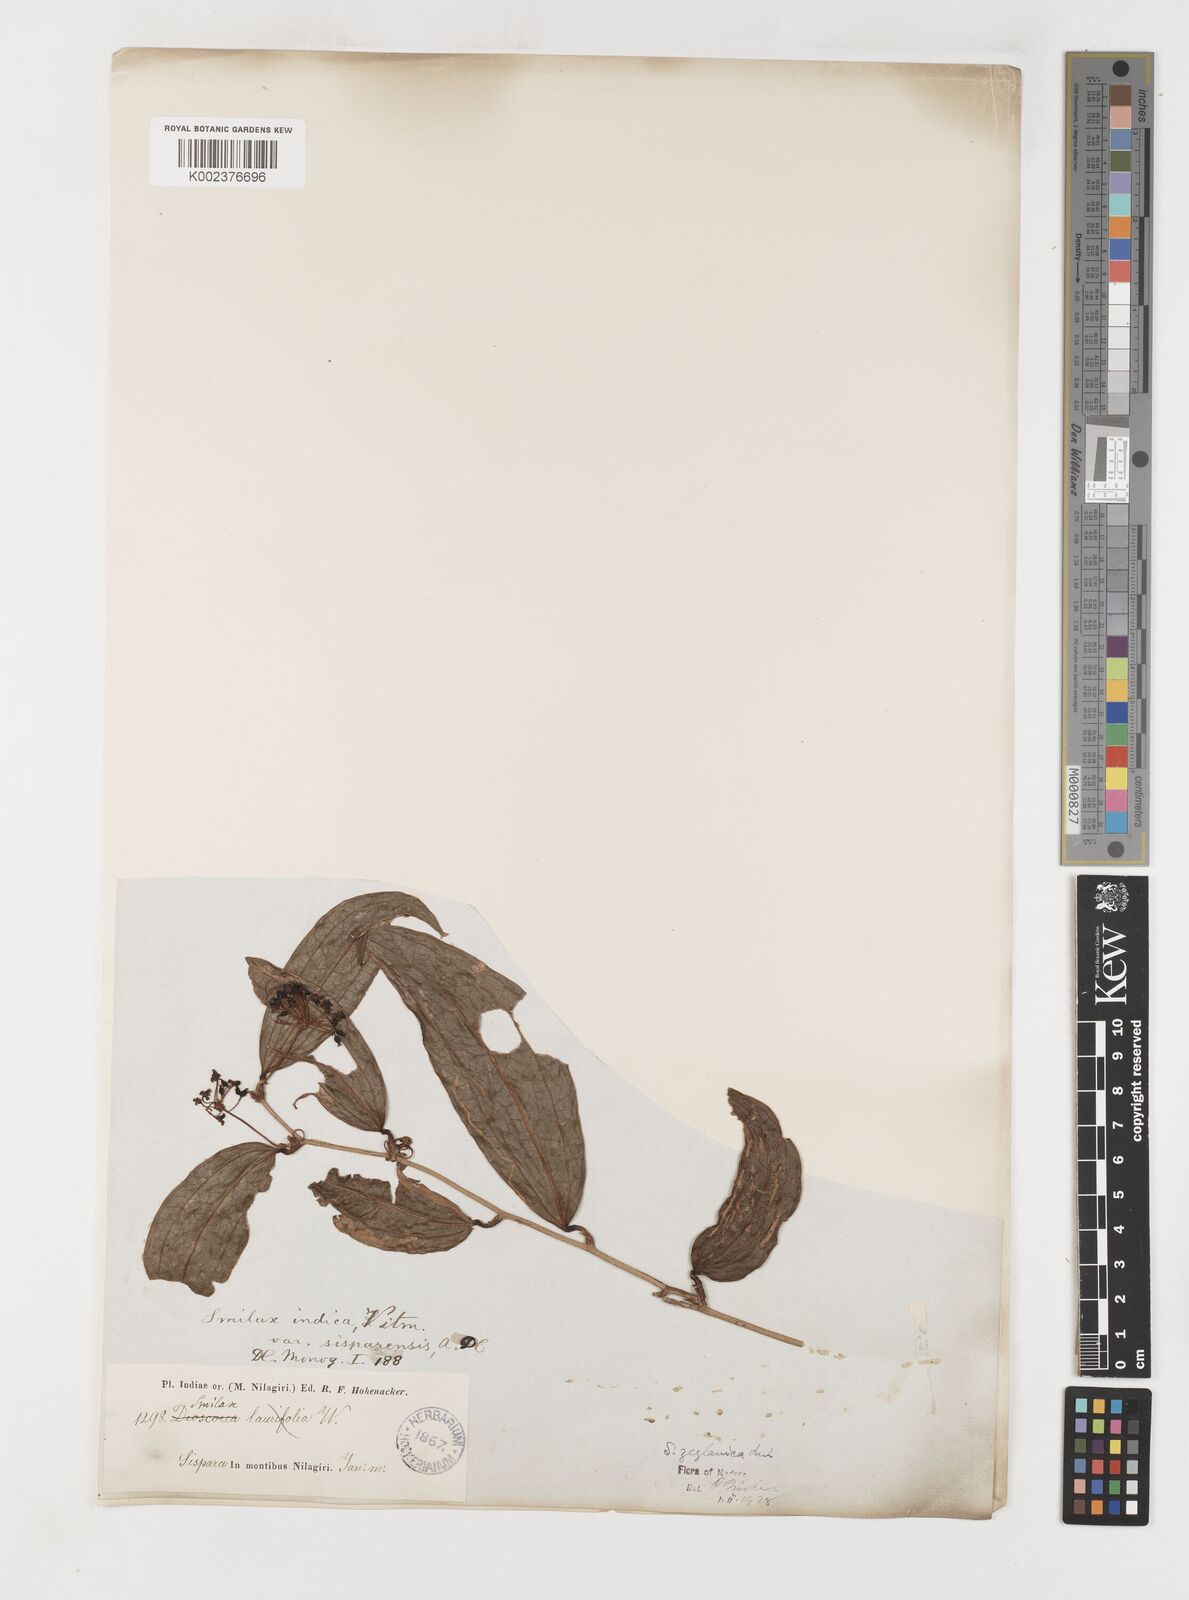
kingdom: Plantae
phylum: Tracheophyta
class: Liliopsida
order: Liliales
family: Smilacaceae
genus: Smilax
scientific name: Smilax zeylanica
